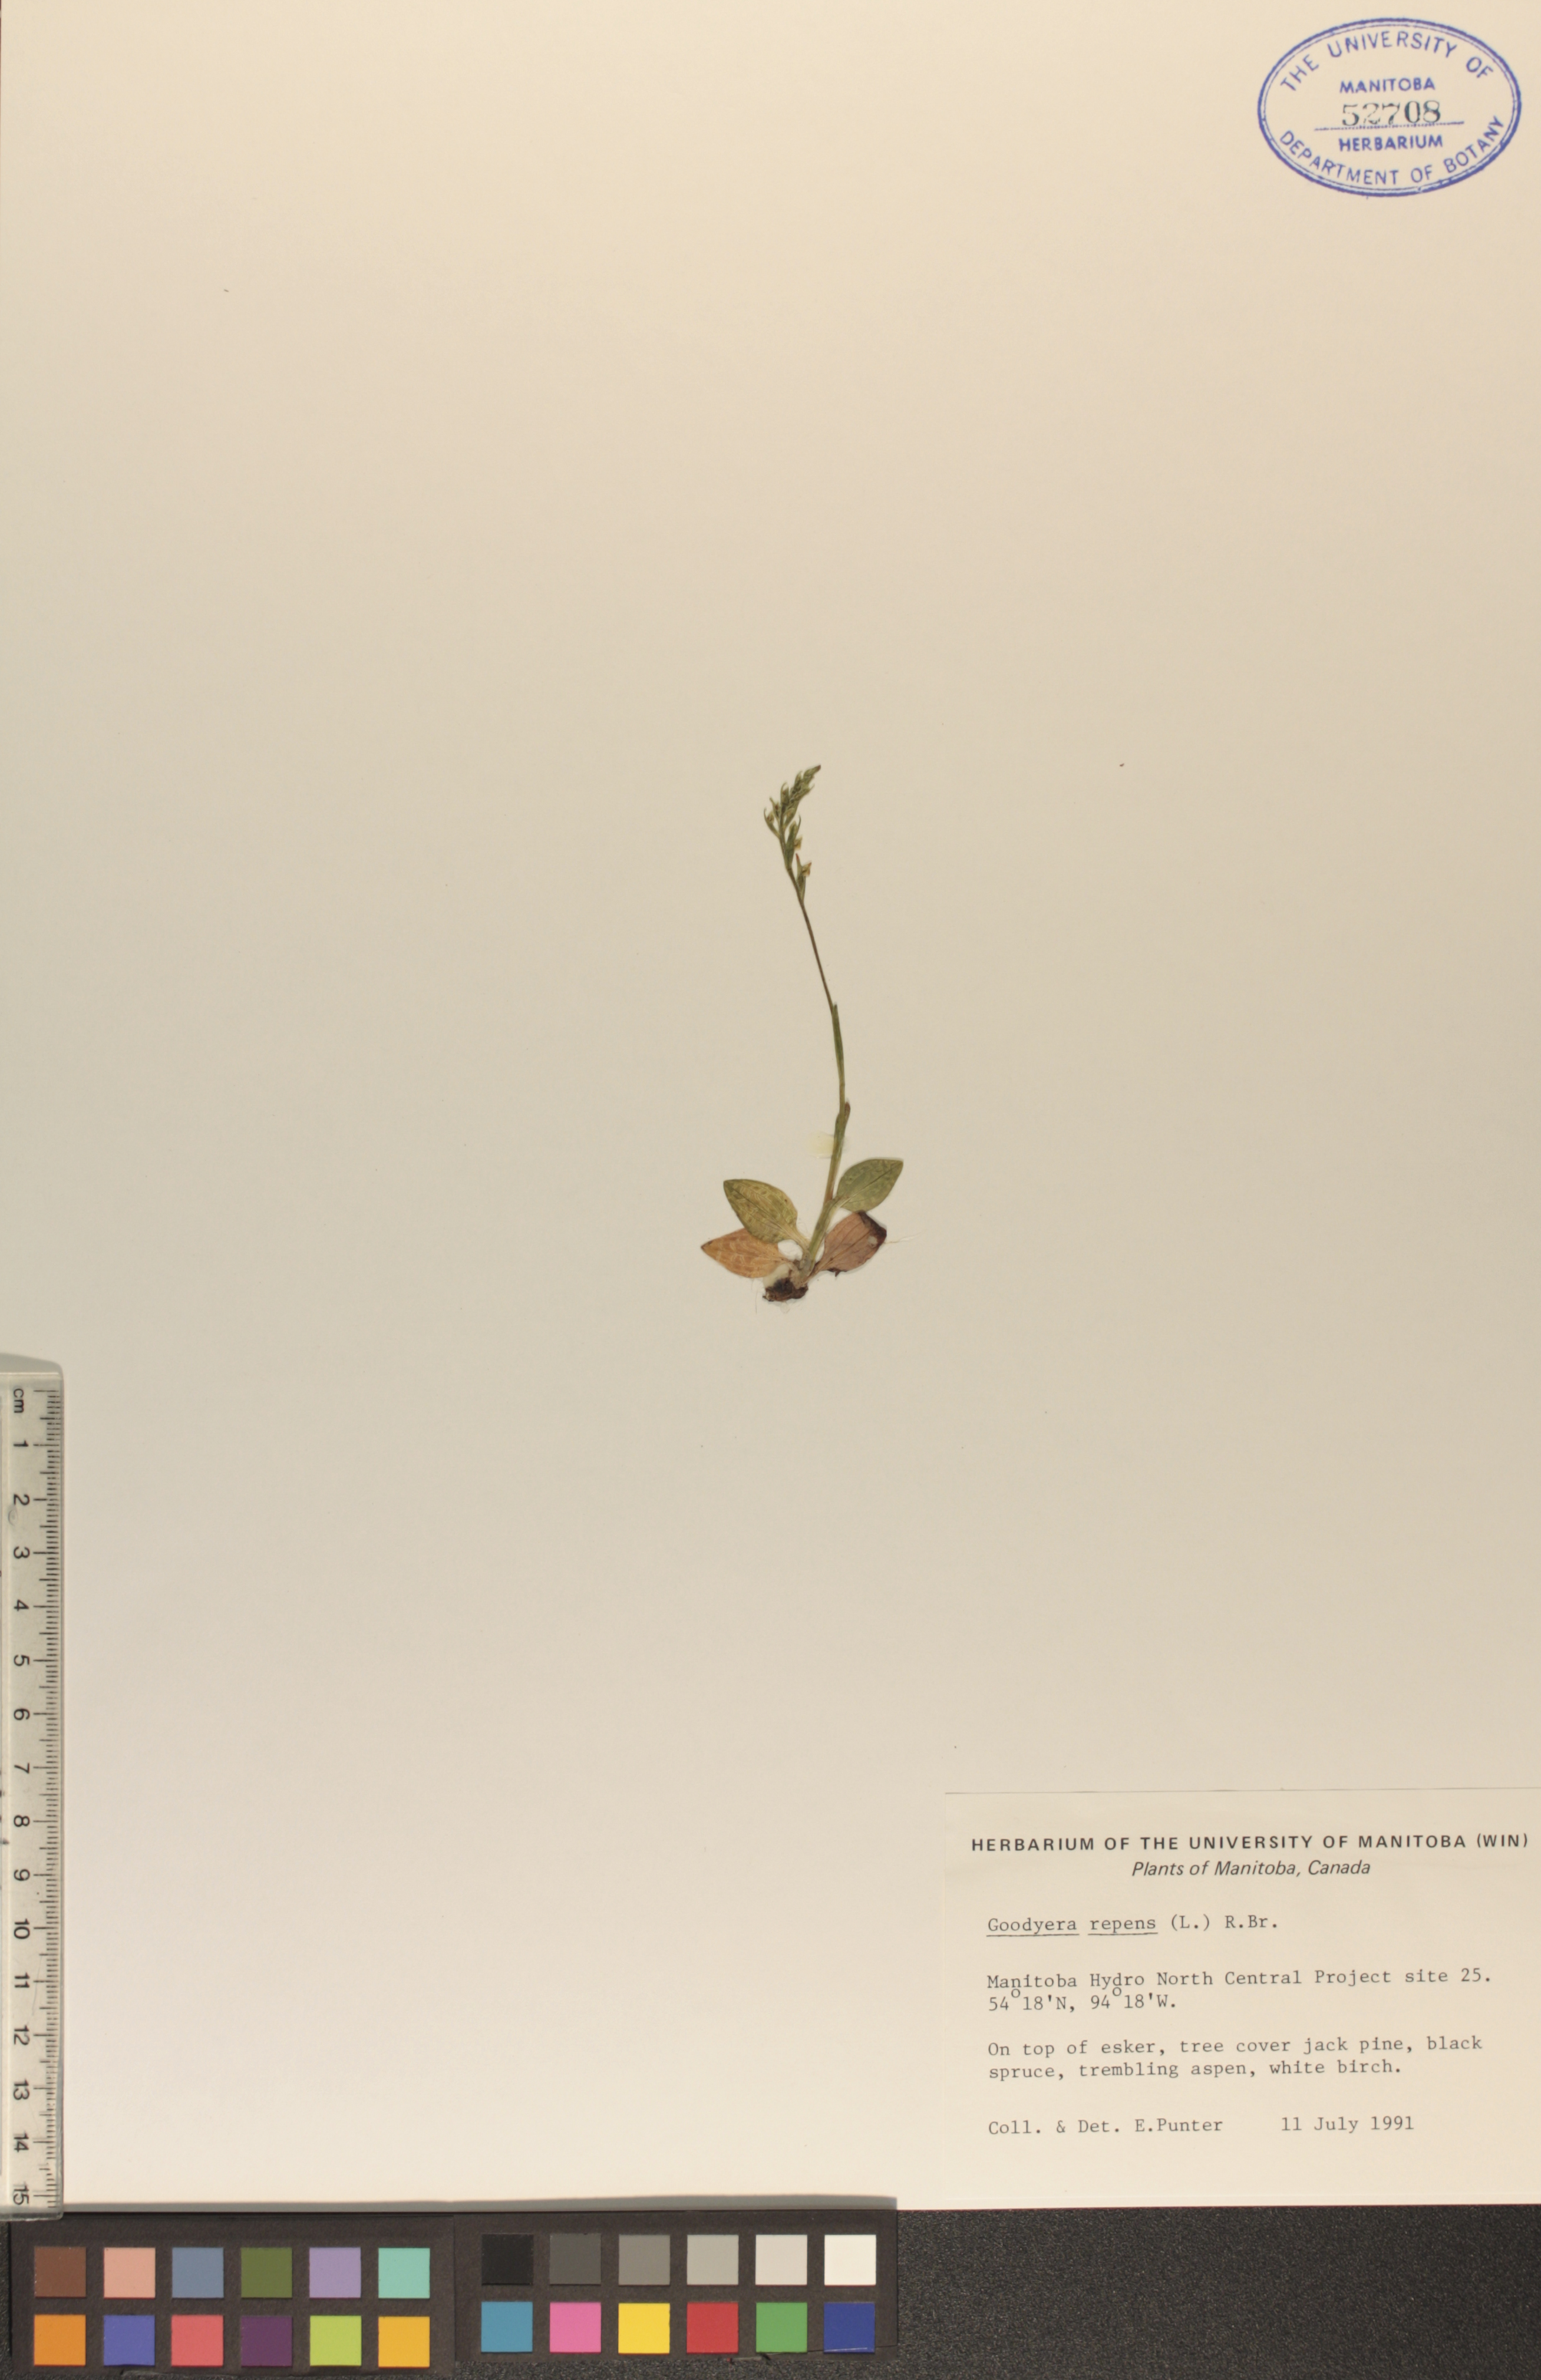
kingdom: Plantae
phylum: Tracheophyta
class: Liliopsida
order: Asparagales
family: Orchidaceae
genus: Goodyera
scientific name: Goodyera repens
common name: Creeping lady's-tresses
